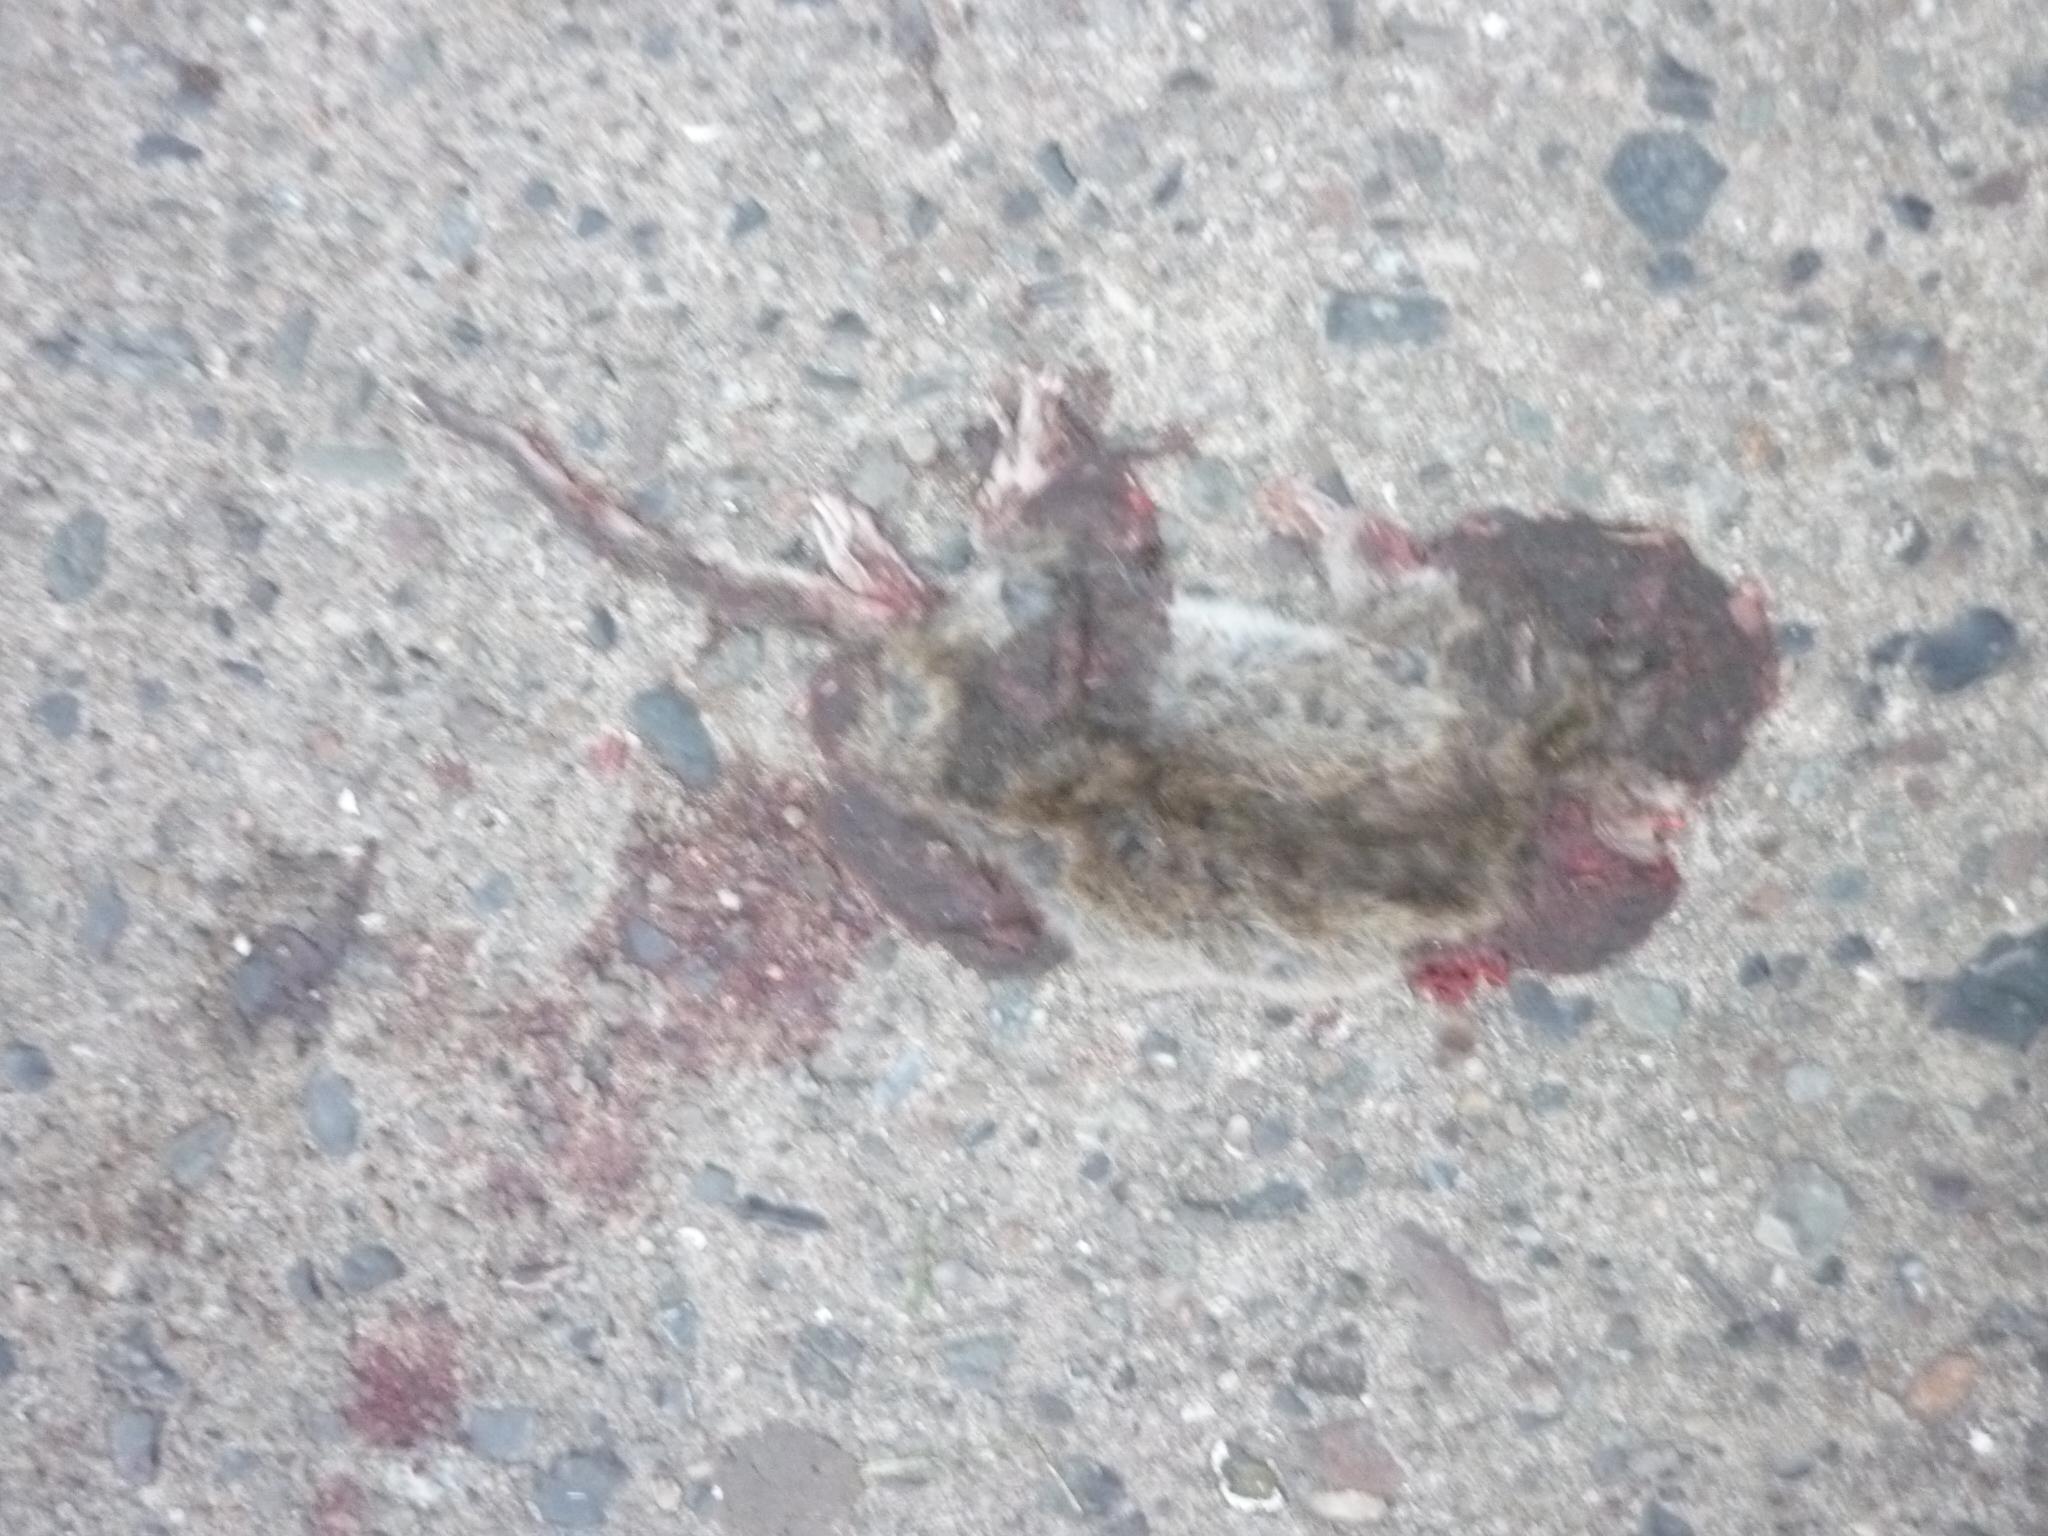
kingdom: Animalia
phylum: Chordata
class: Mammalia
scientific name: Mammalia
